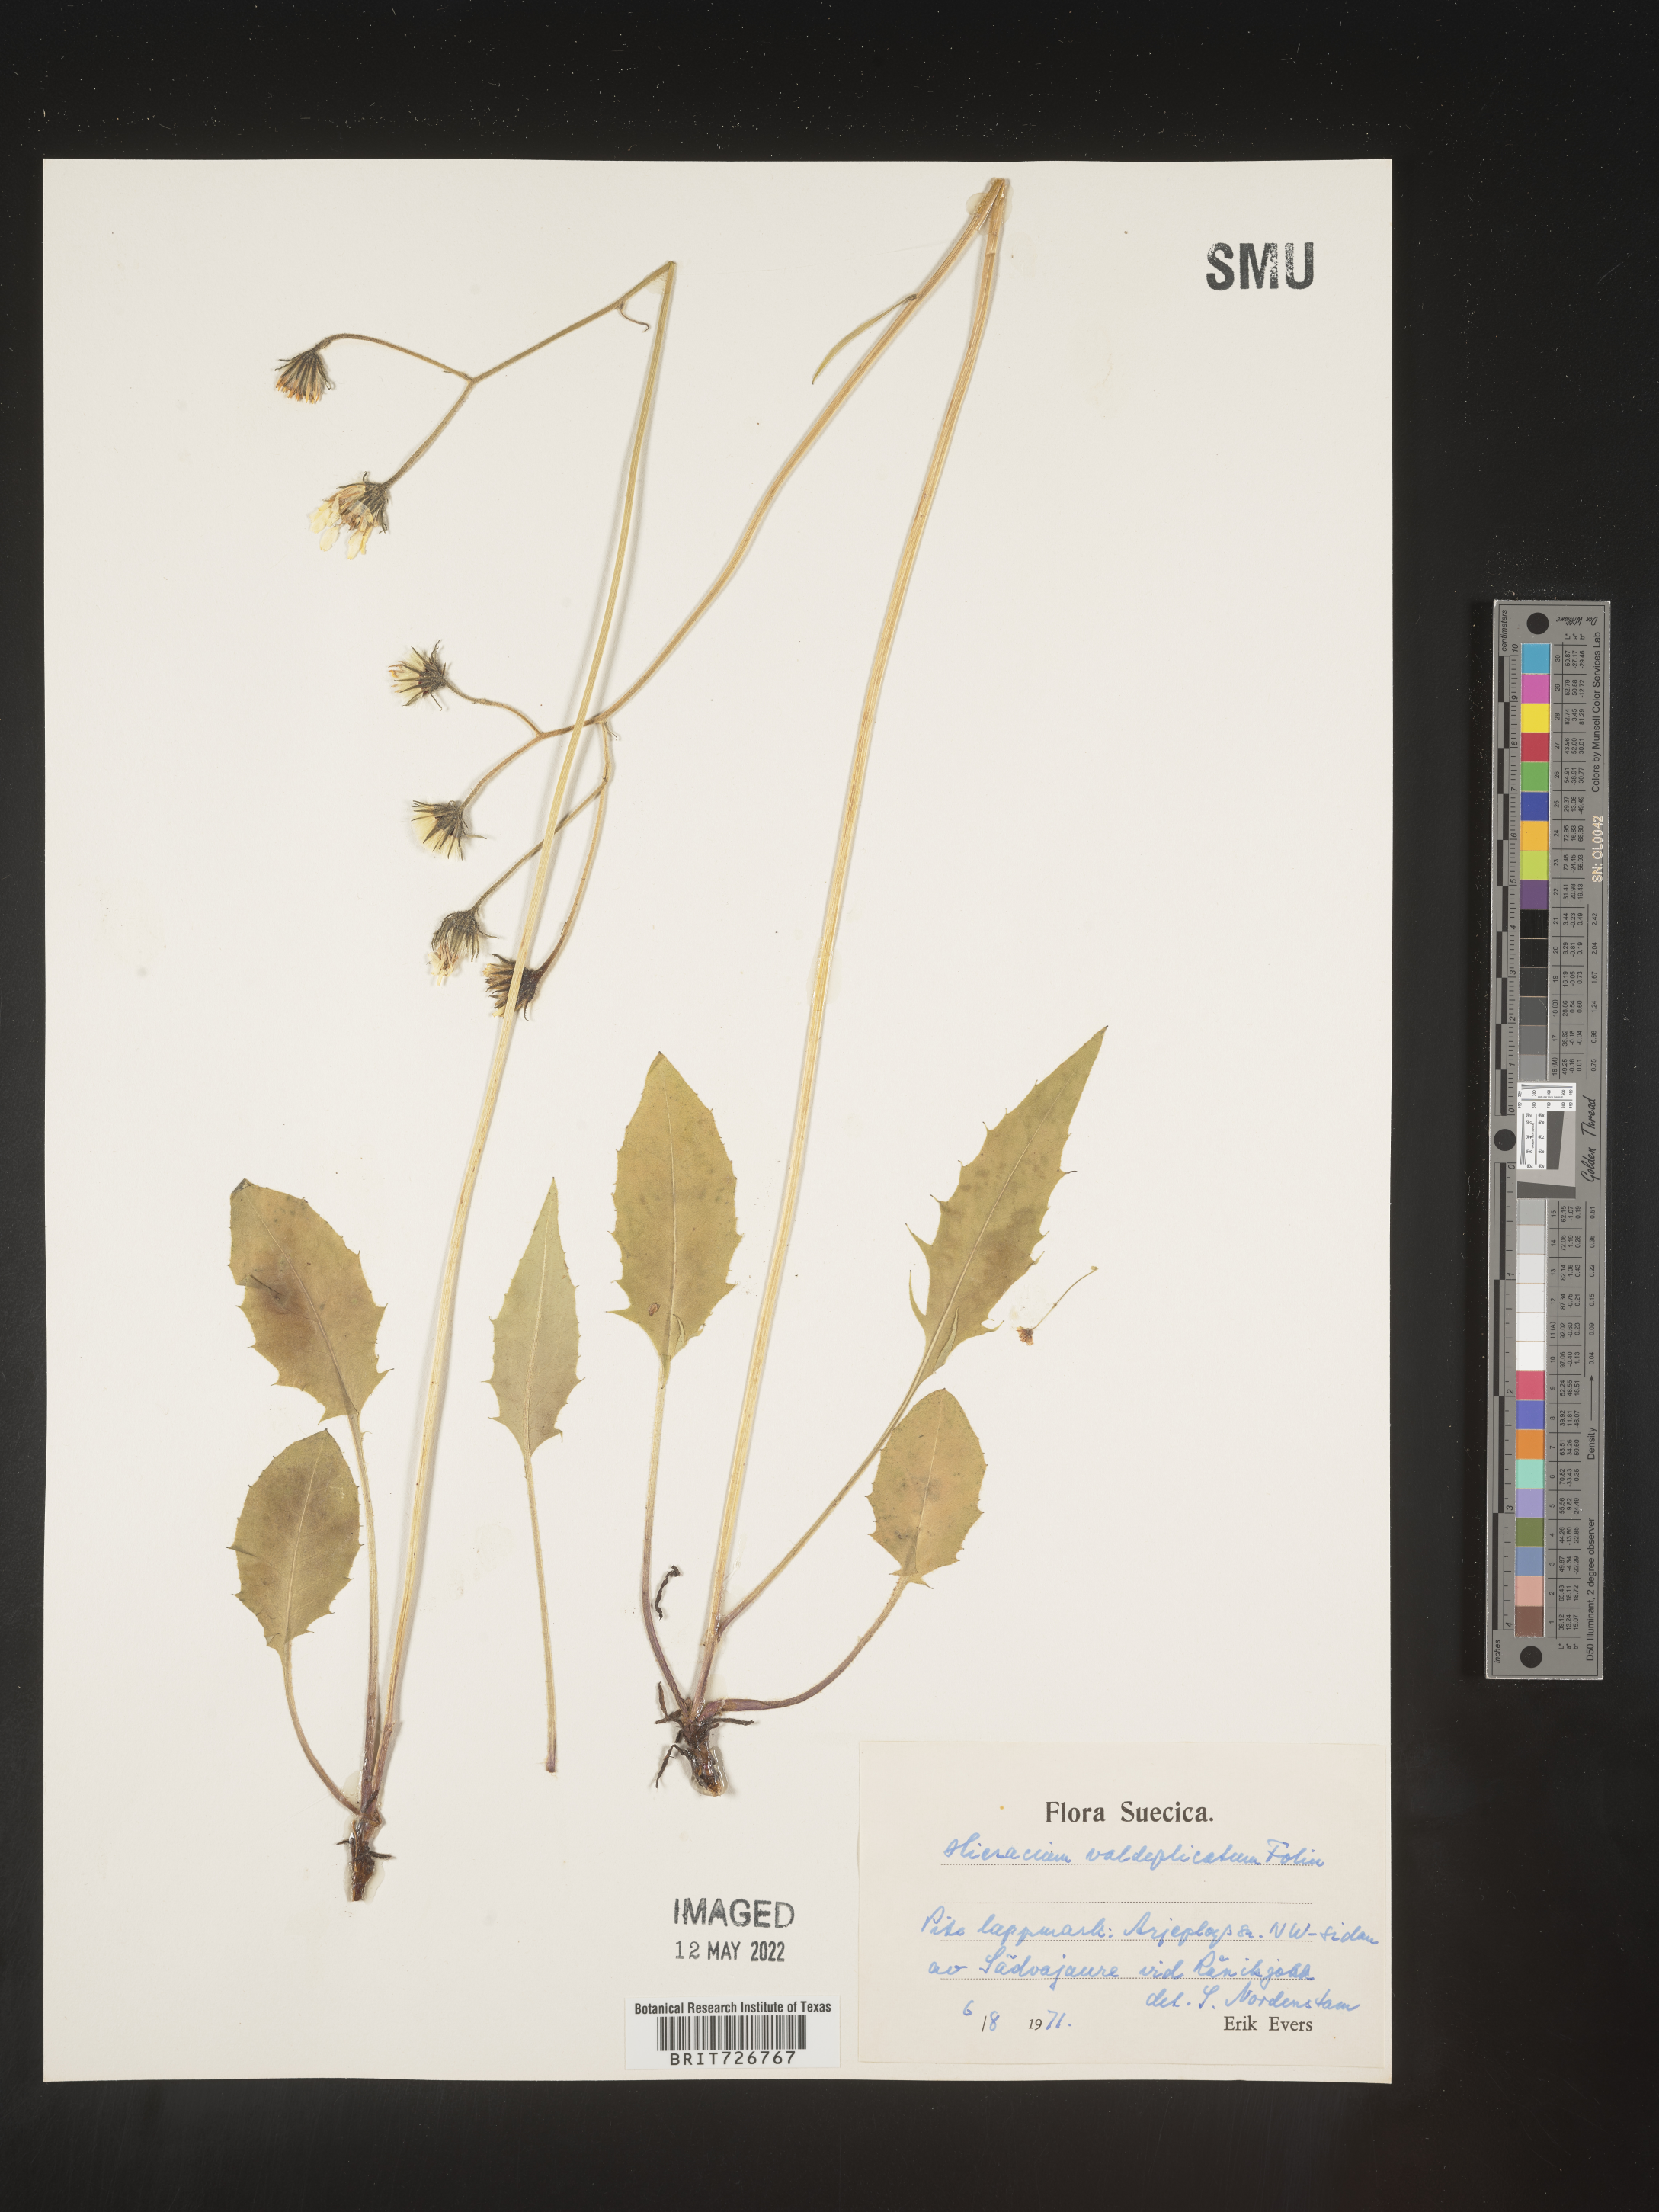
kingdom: Plantae
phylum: Tracheophyta
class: Magnoliopsida
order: Asterales
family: Asteraceae
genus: Hieracium
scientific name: Hieracium
